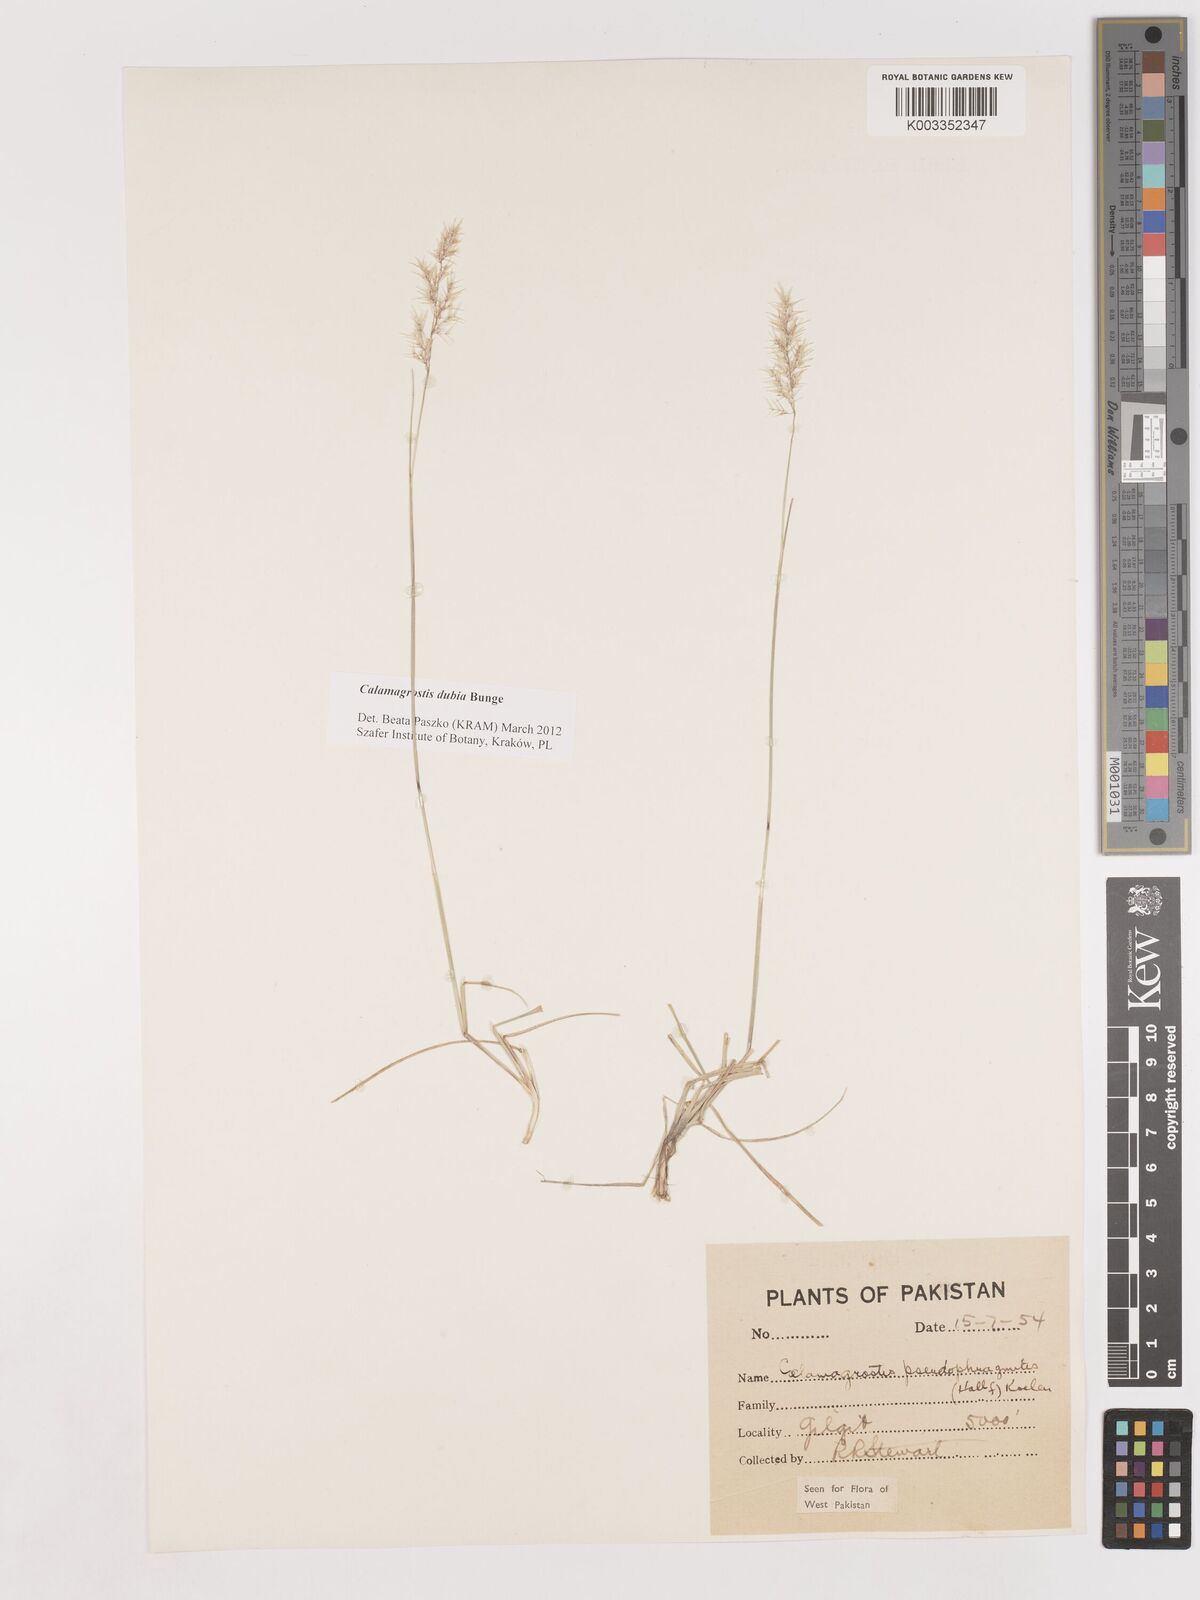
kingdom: Plantae
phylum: Tracheophyta
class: Liliopsida
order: Poales
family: Poaceae
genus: Calamagrostis
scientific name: Calamagrostis pseudophragmites
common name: Coastal small-reed
